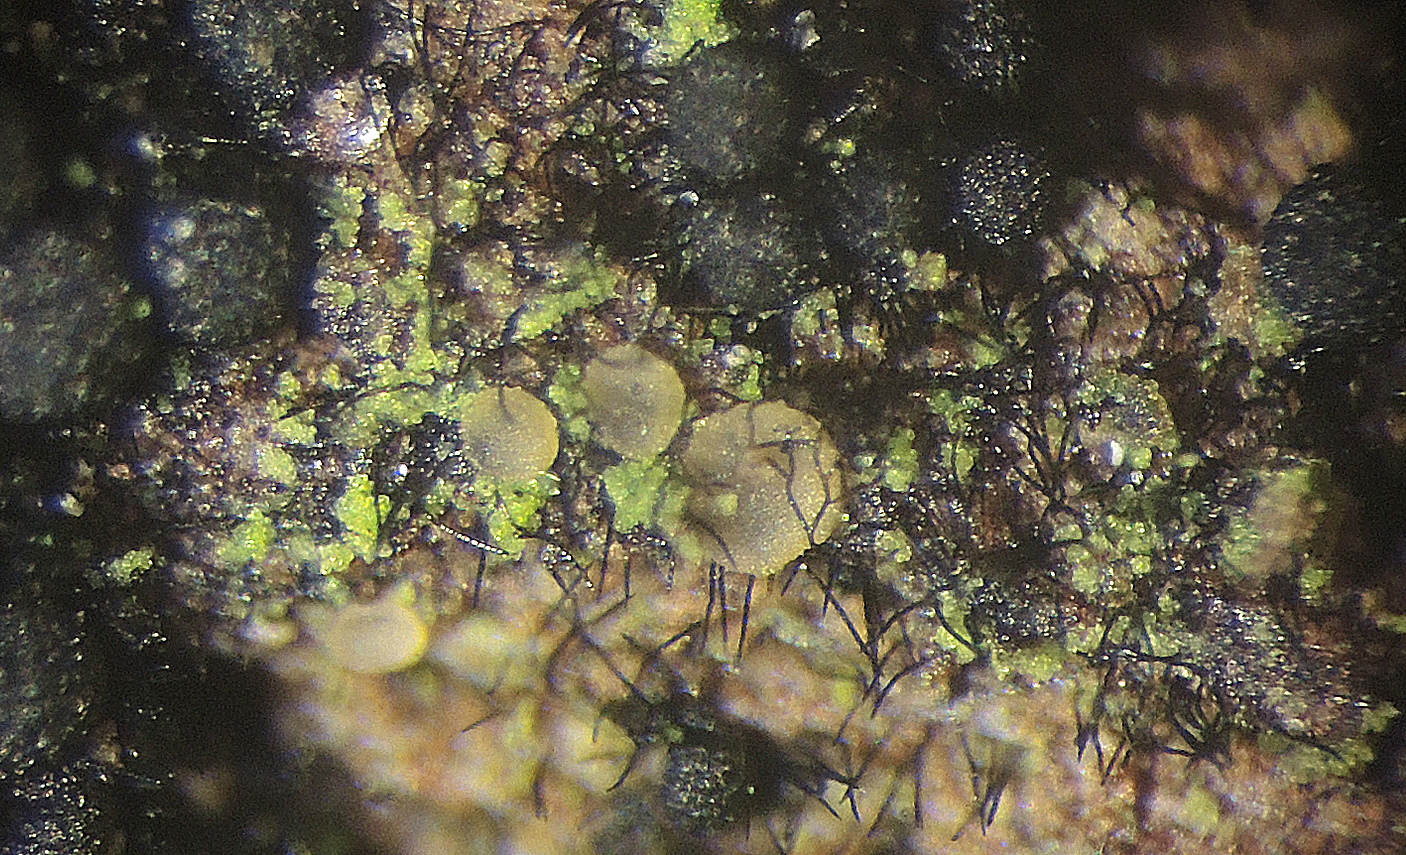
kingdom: Fungi
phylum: Ascomycota
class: Orbiliomycetes
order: Orbiliales
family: Orbiliaceae
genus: Hyalorbilia
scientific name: Hyalorbilia juliae
